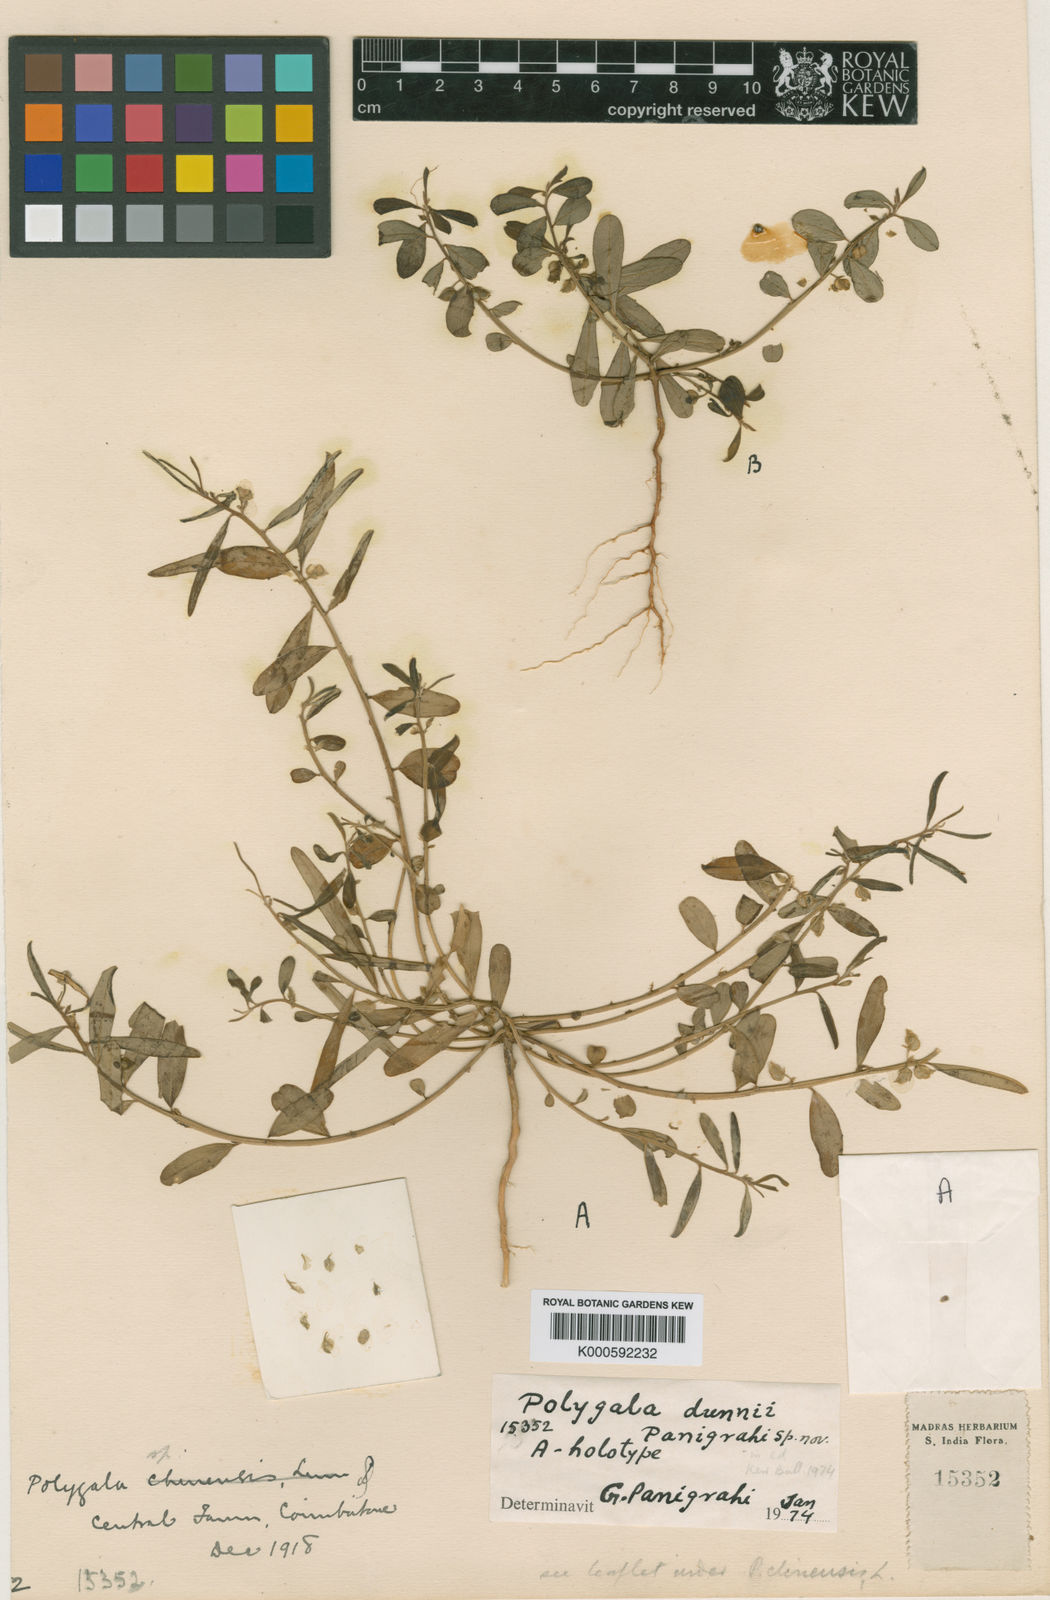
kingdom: Plantae
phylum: Tracheophyta
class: Magnoliopsida
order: Fabales
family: Polygalaceae
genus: Polygala
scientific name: Polygala jacobii
